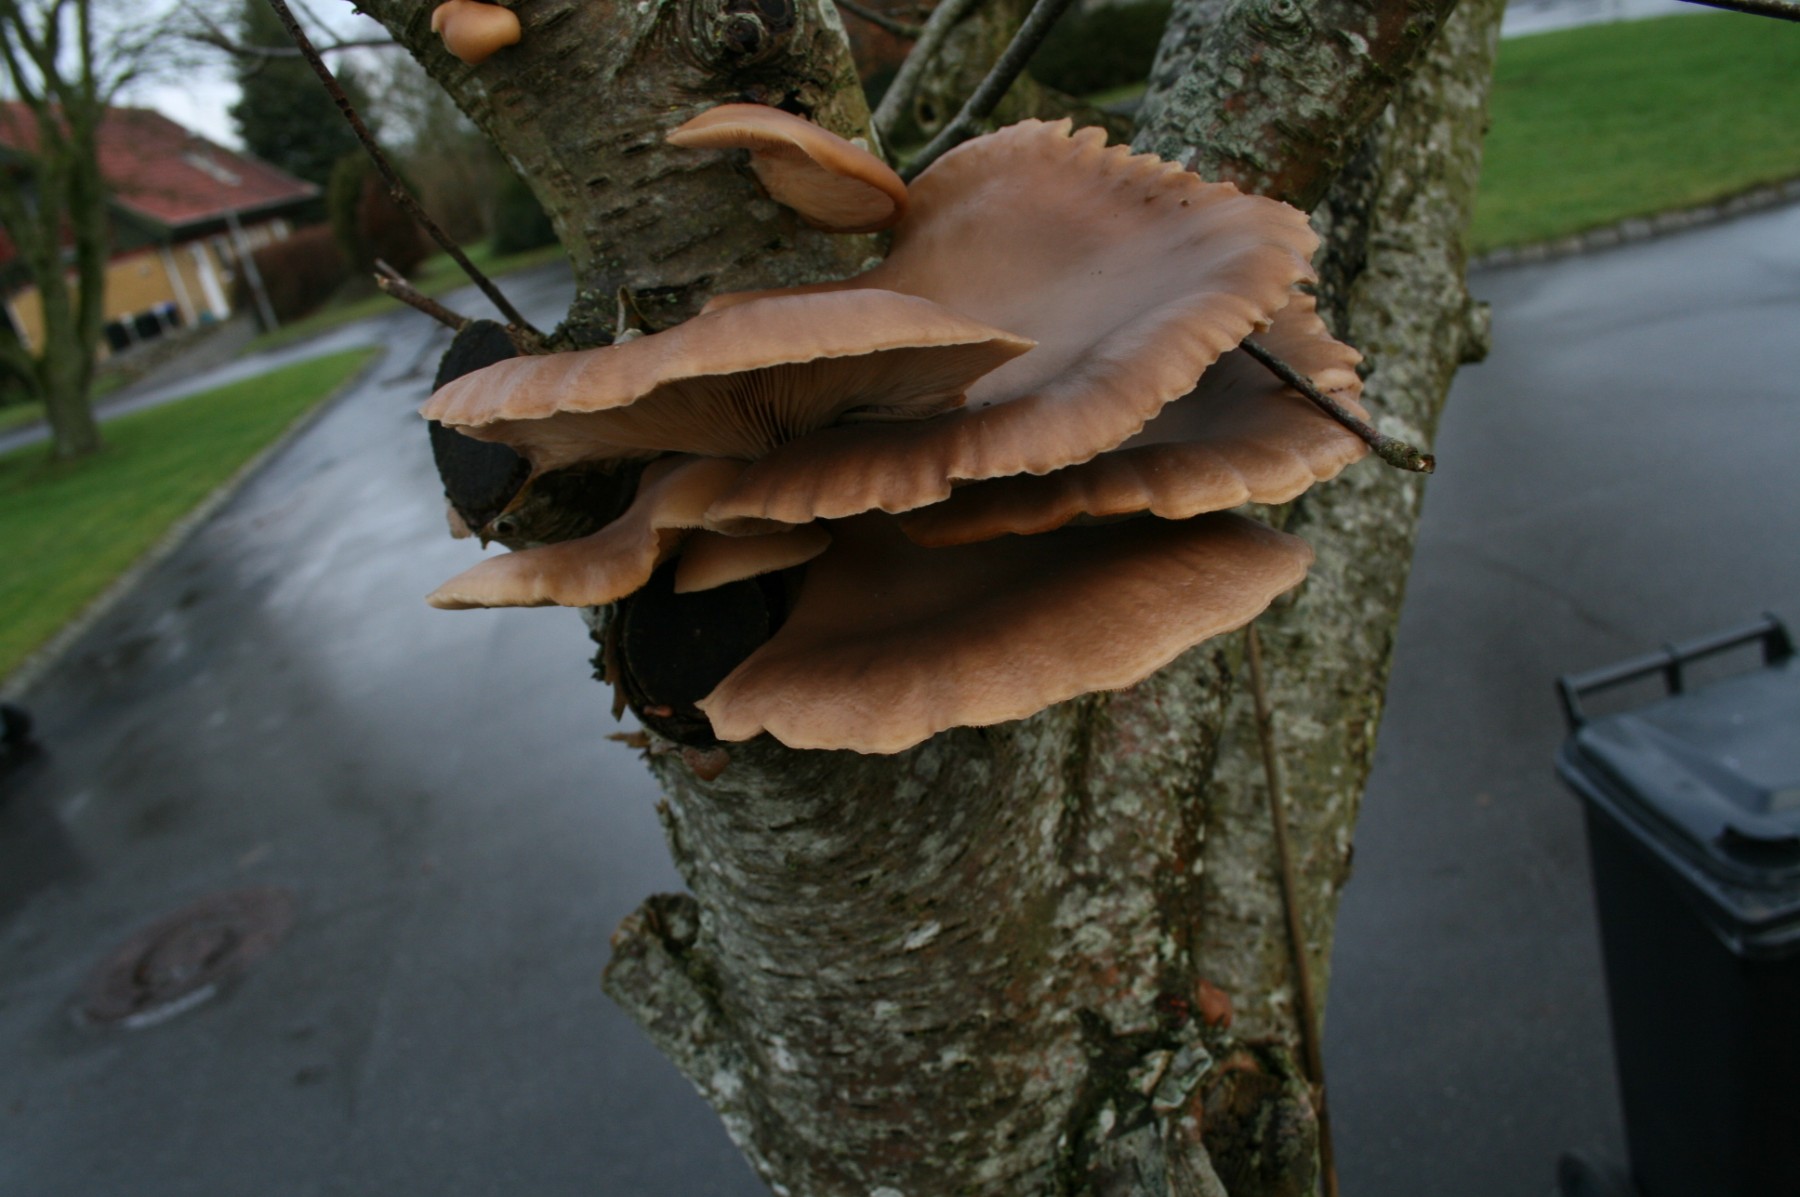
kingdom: Fungi
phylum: Basidiomycota
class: Agaricomycetes
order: Agaricales
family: Pleurotaceae
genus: Pleurotus
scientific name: Pleurotus ostreatus
